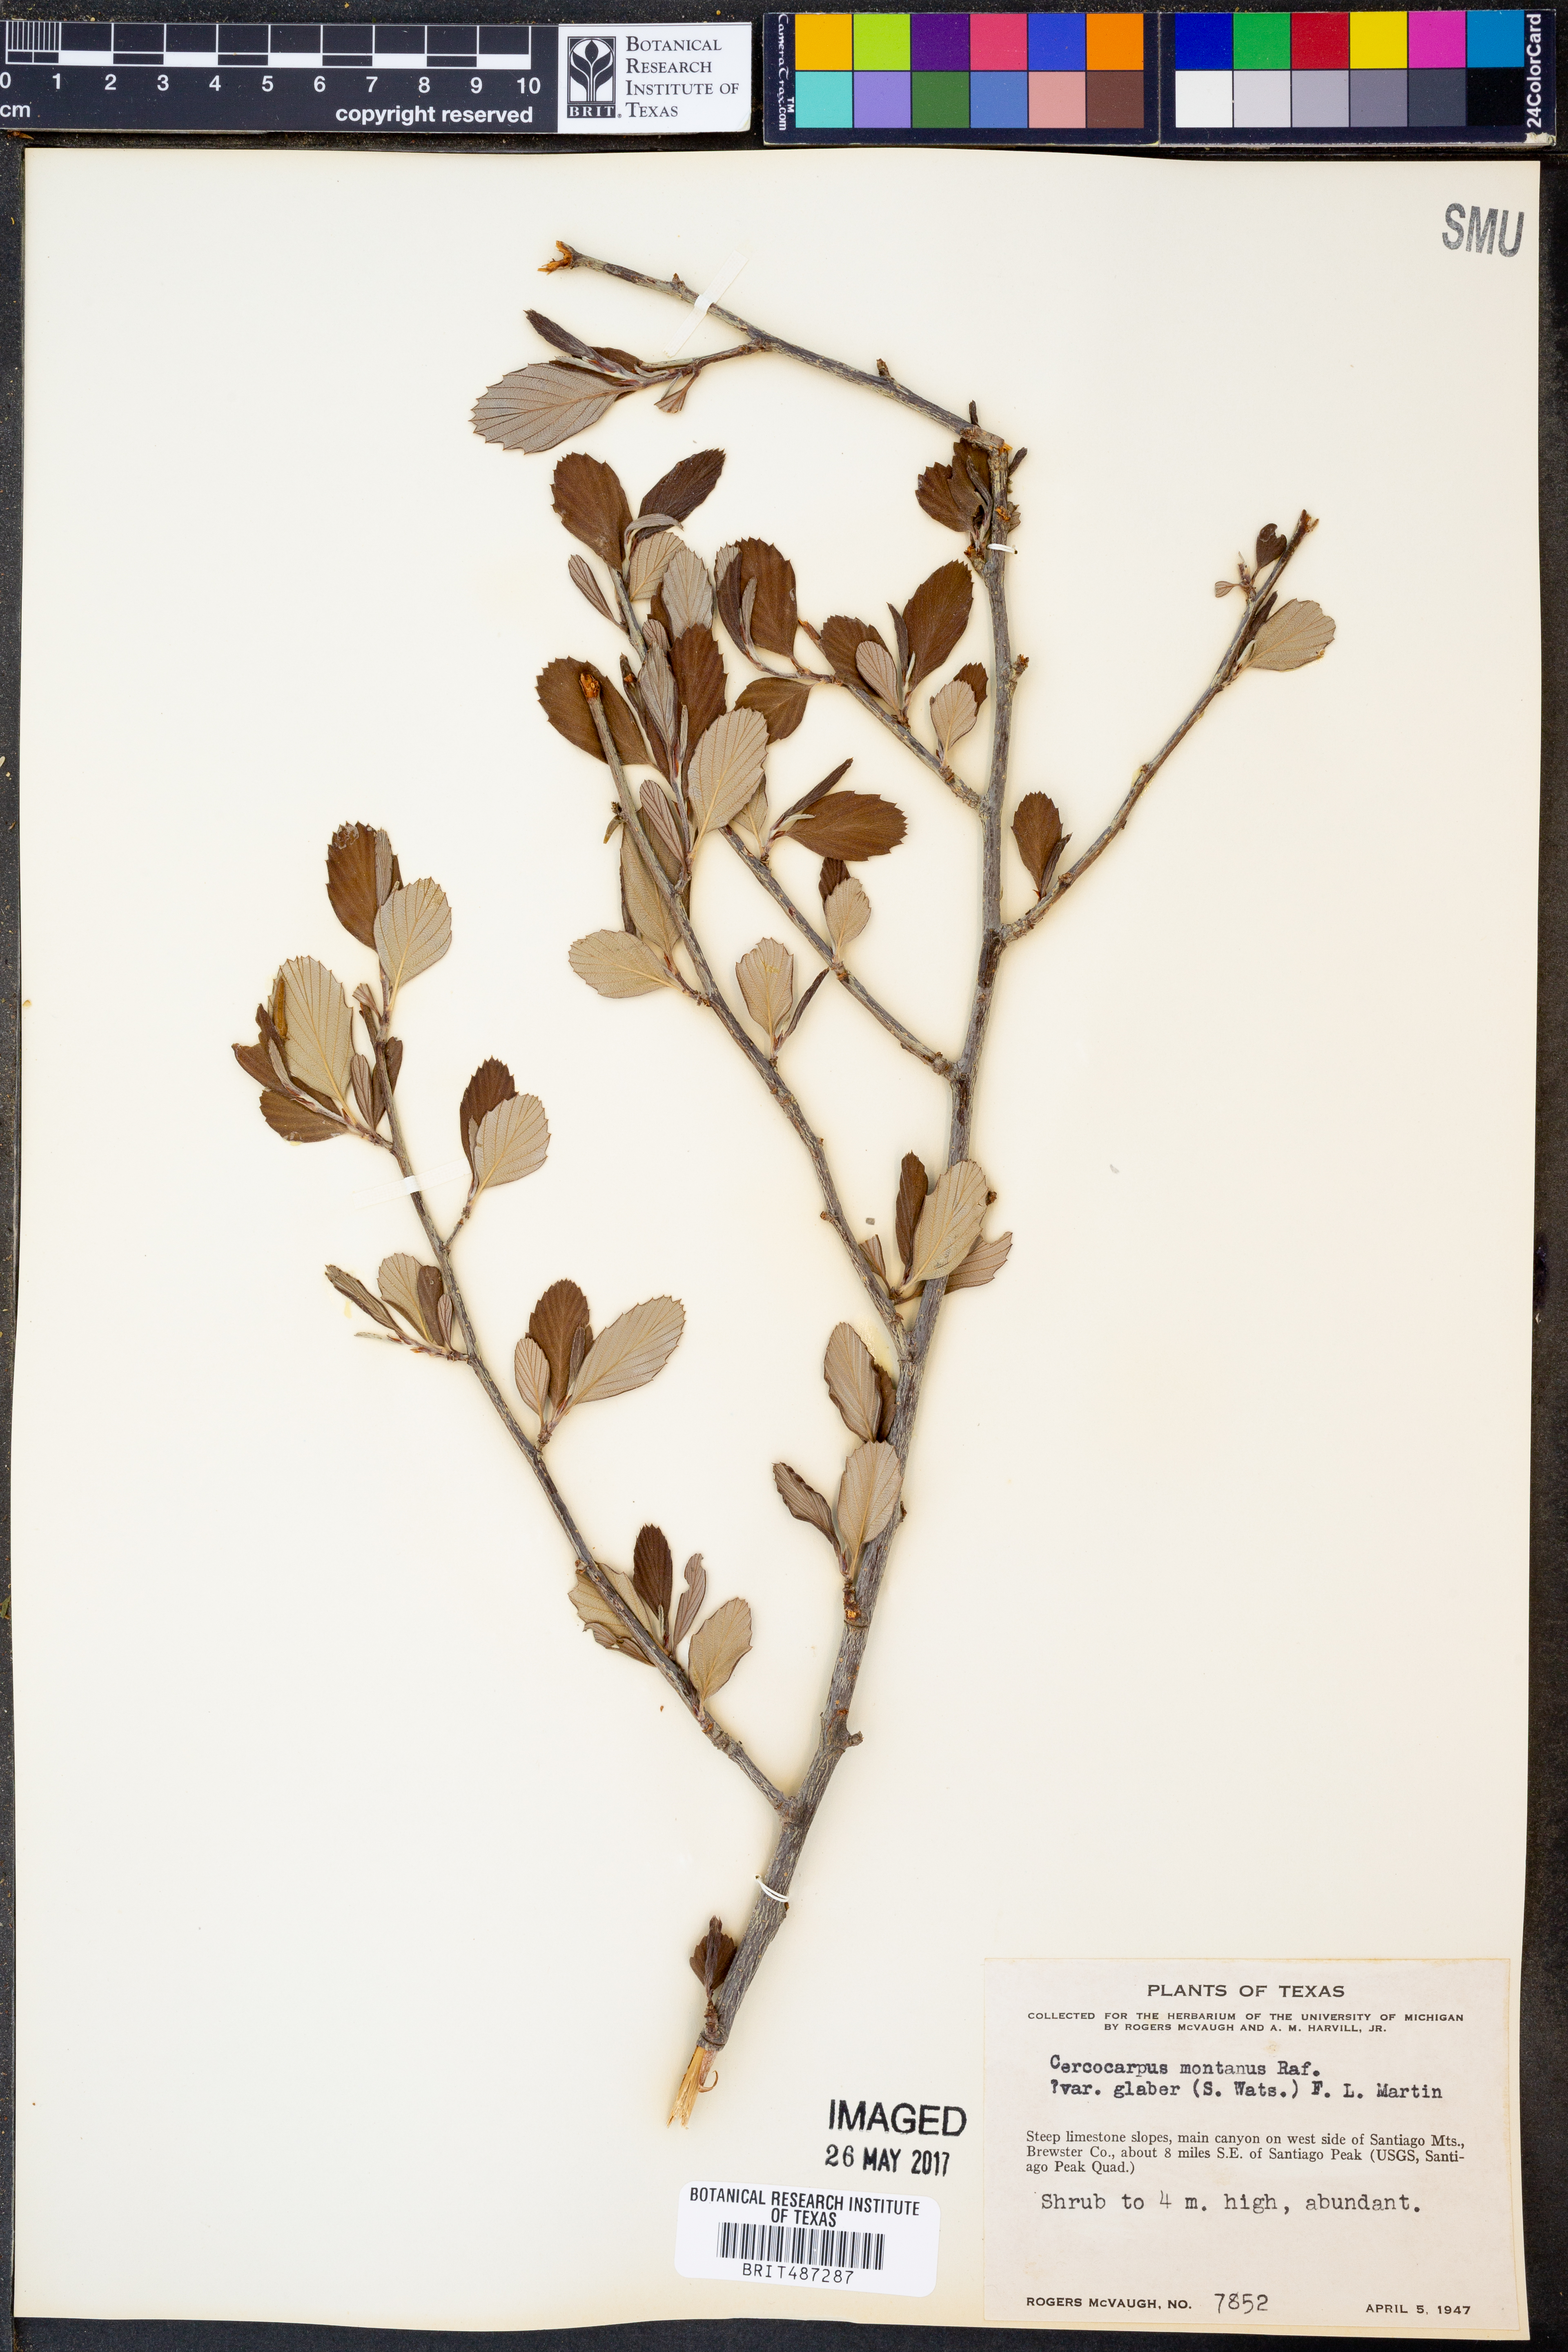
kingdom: Plantae
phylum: Tracheophyta
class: Magnoliopsida
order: Rosales
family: Rosaceae
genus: Cercocarpus
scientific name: Cercocarpus betuloides
